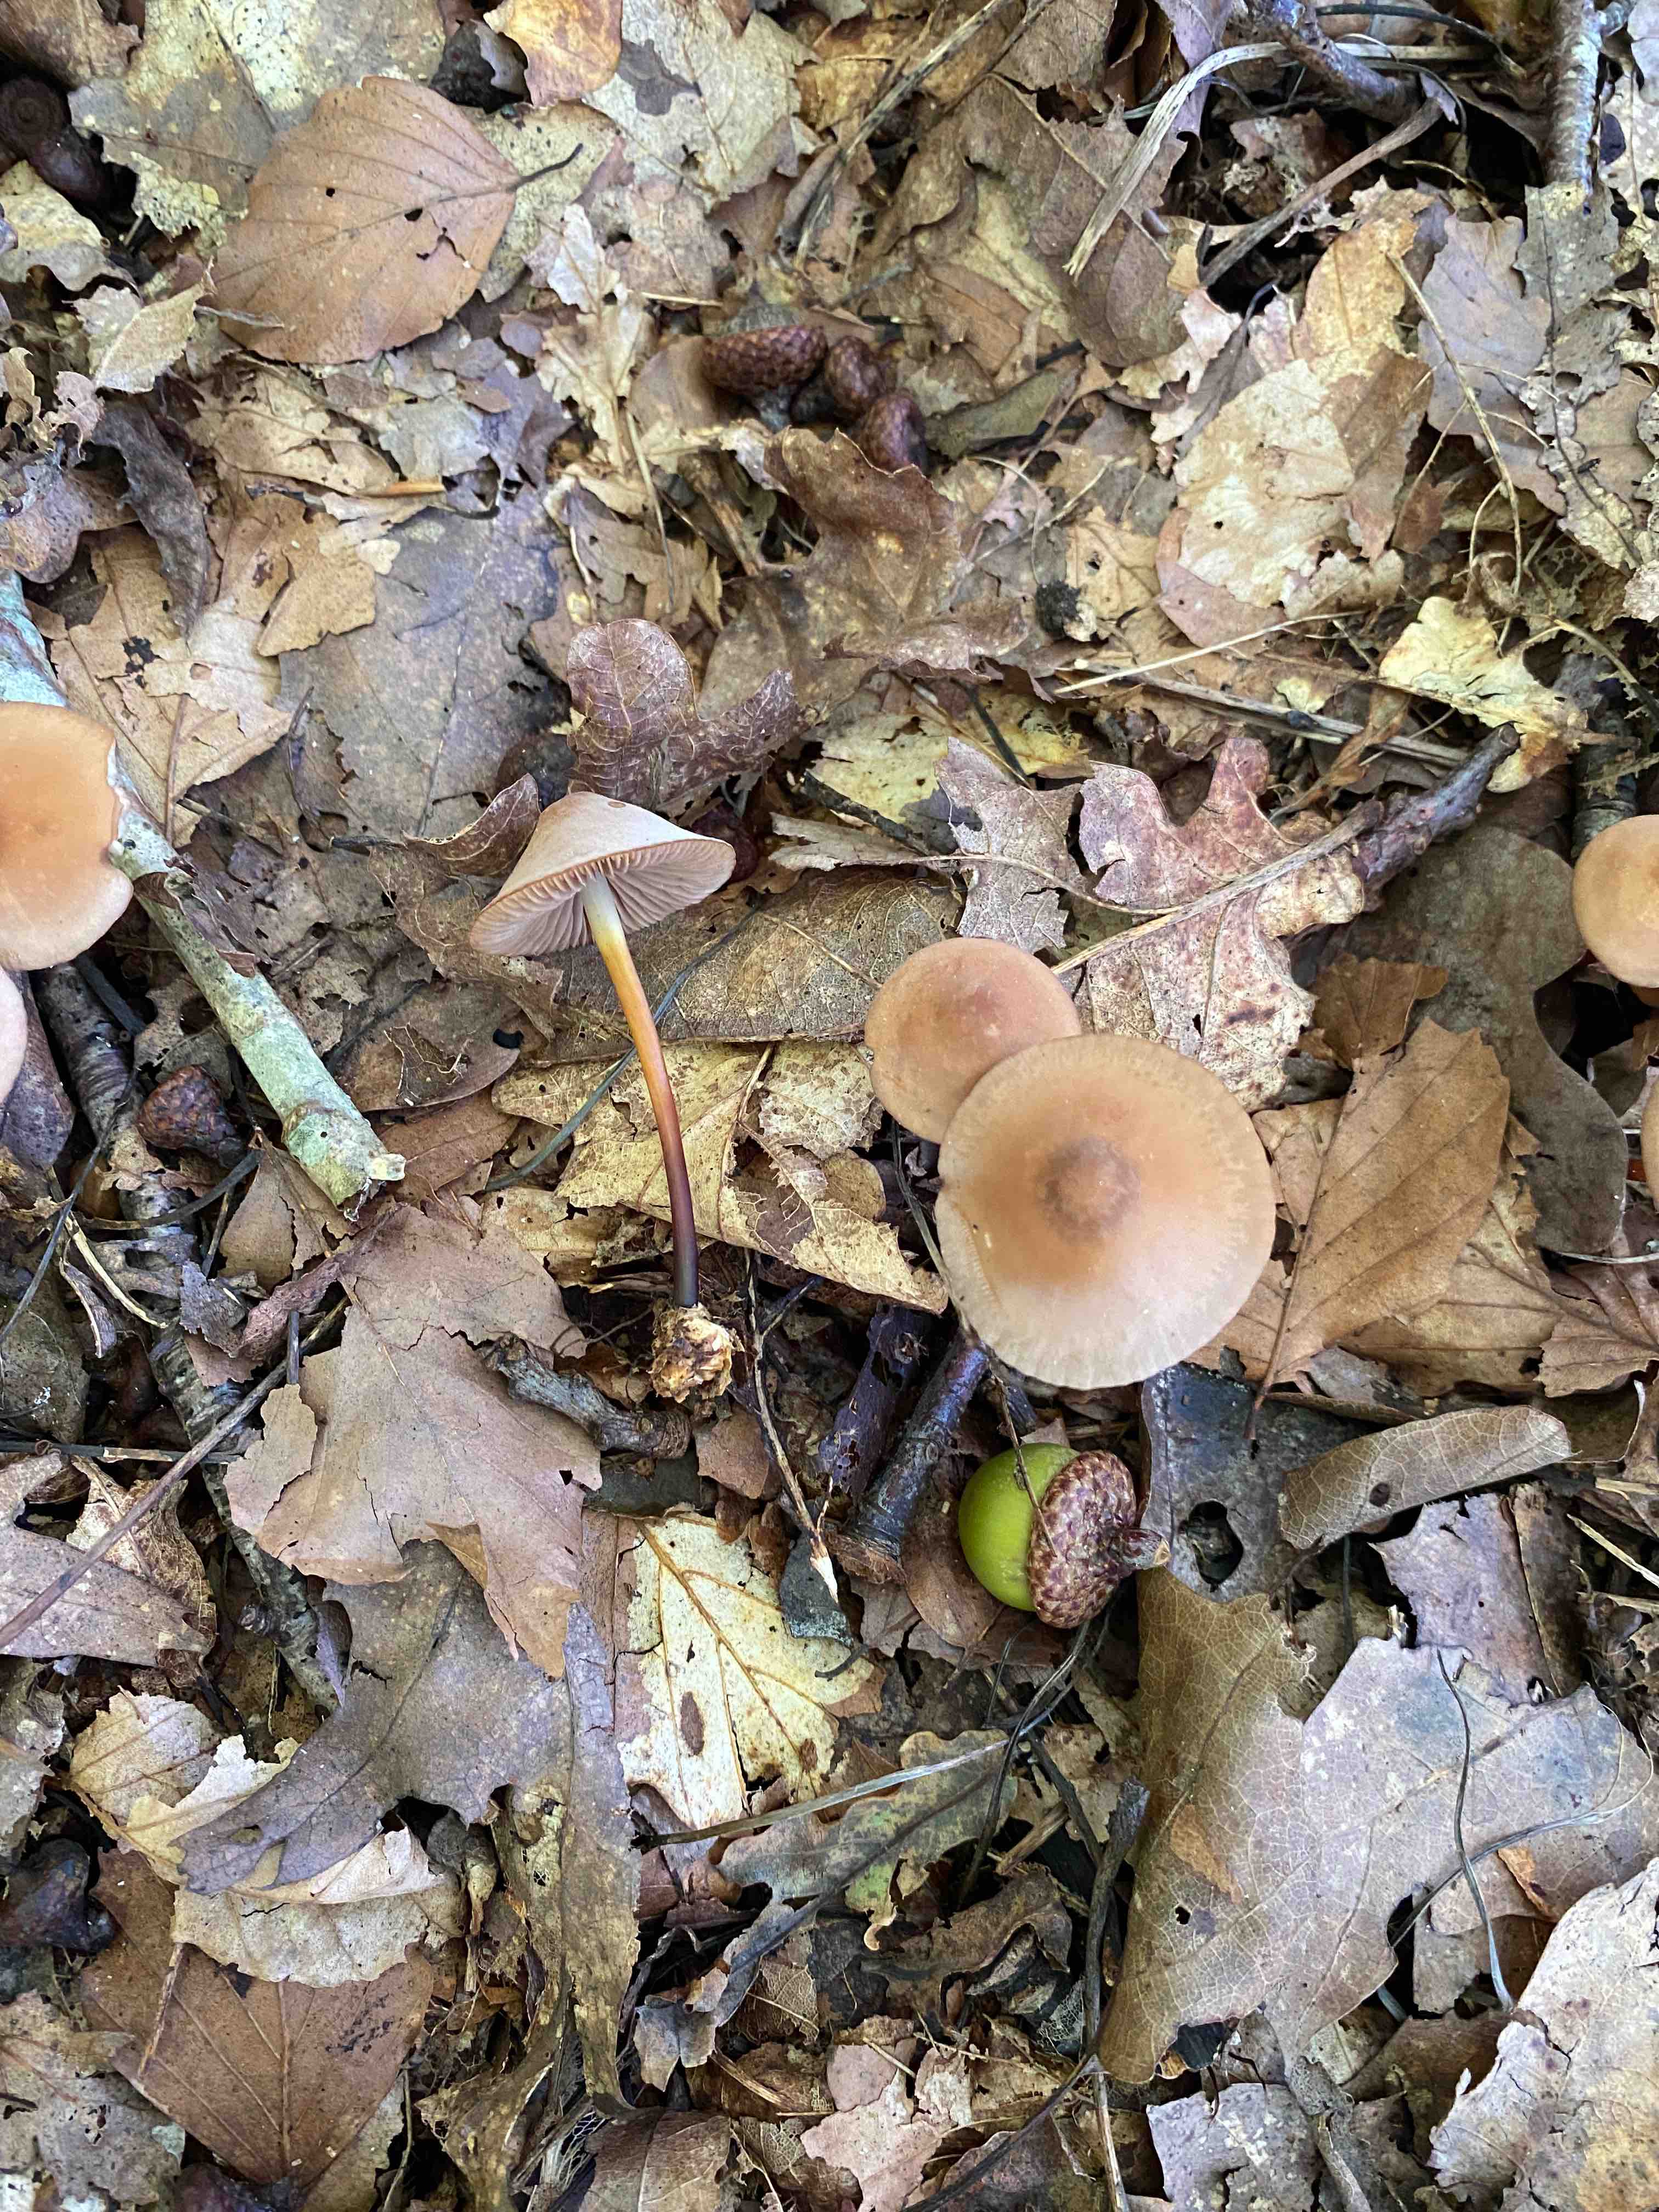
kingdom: Fungi
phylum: Basidiomycota
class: Agaricomycetes
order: Agaricales
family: Marasmiaceae
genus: Marasmius
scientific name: Marasmius cohaerens
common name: hornstokket bruskhat
